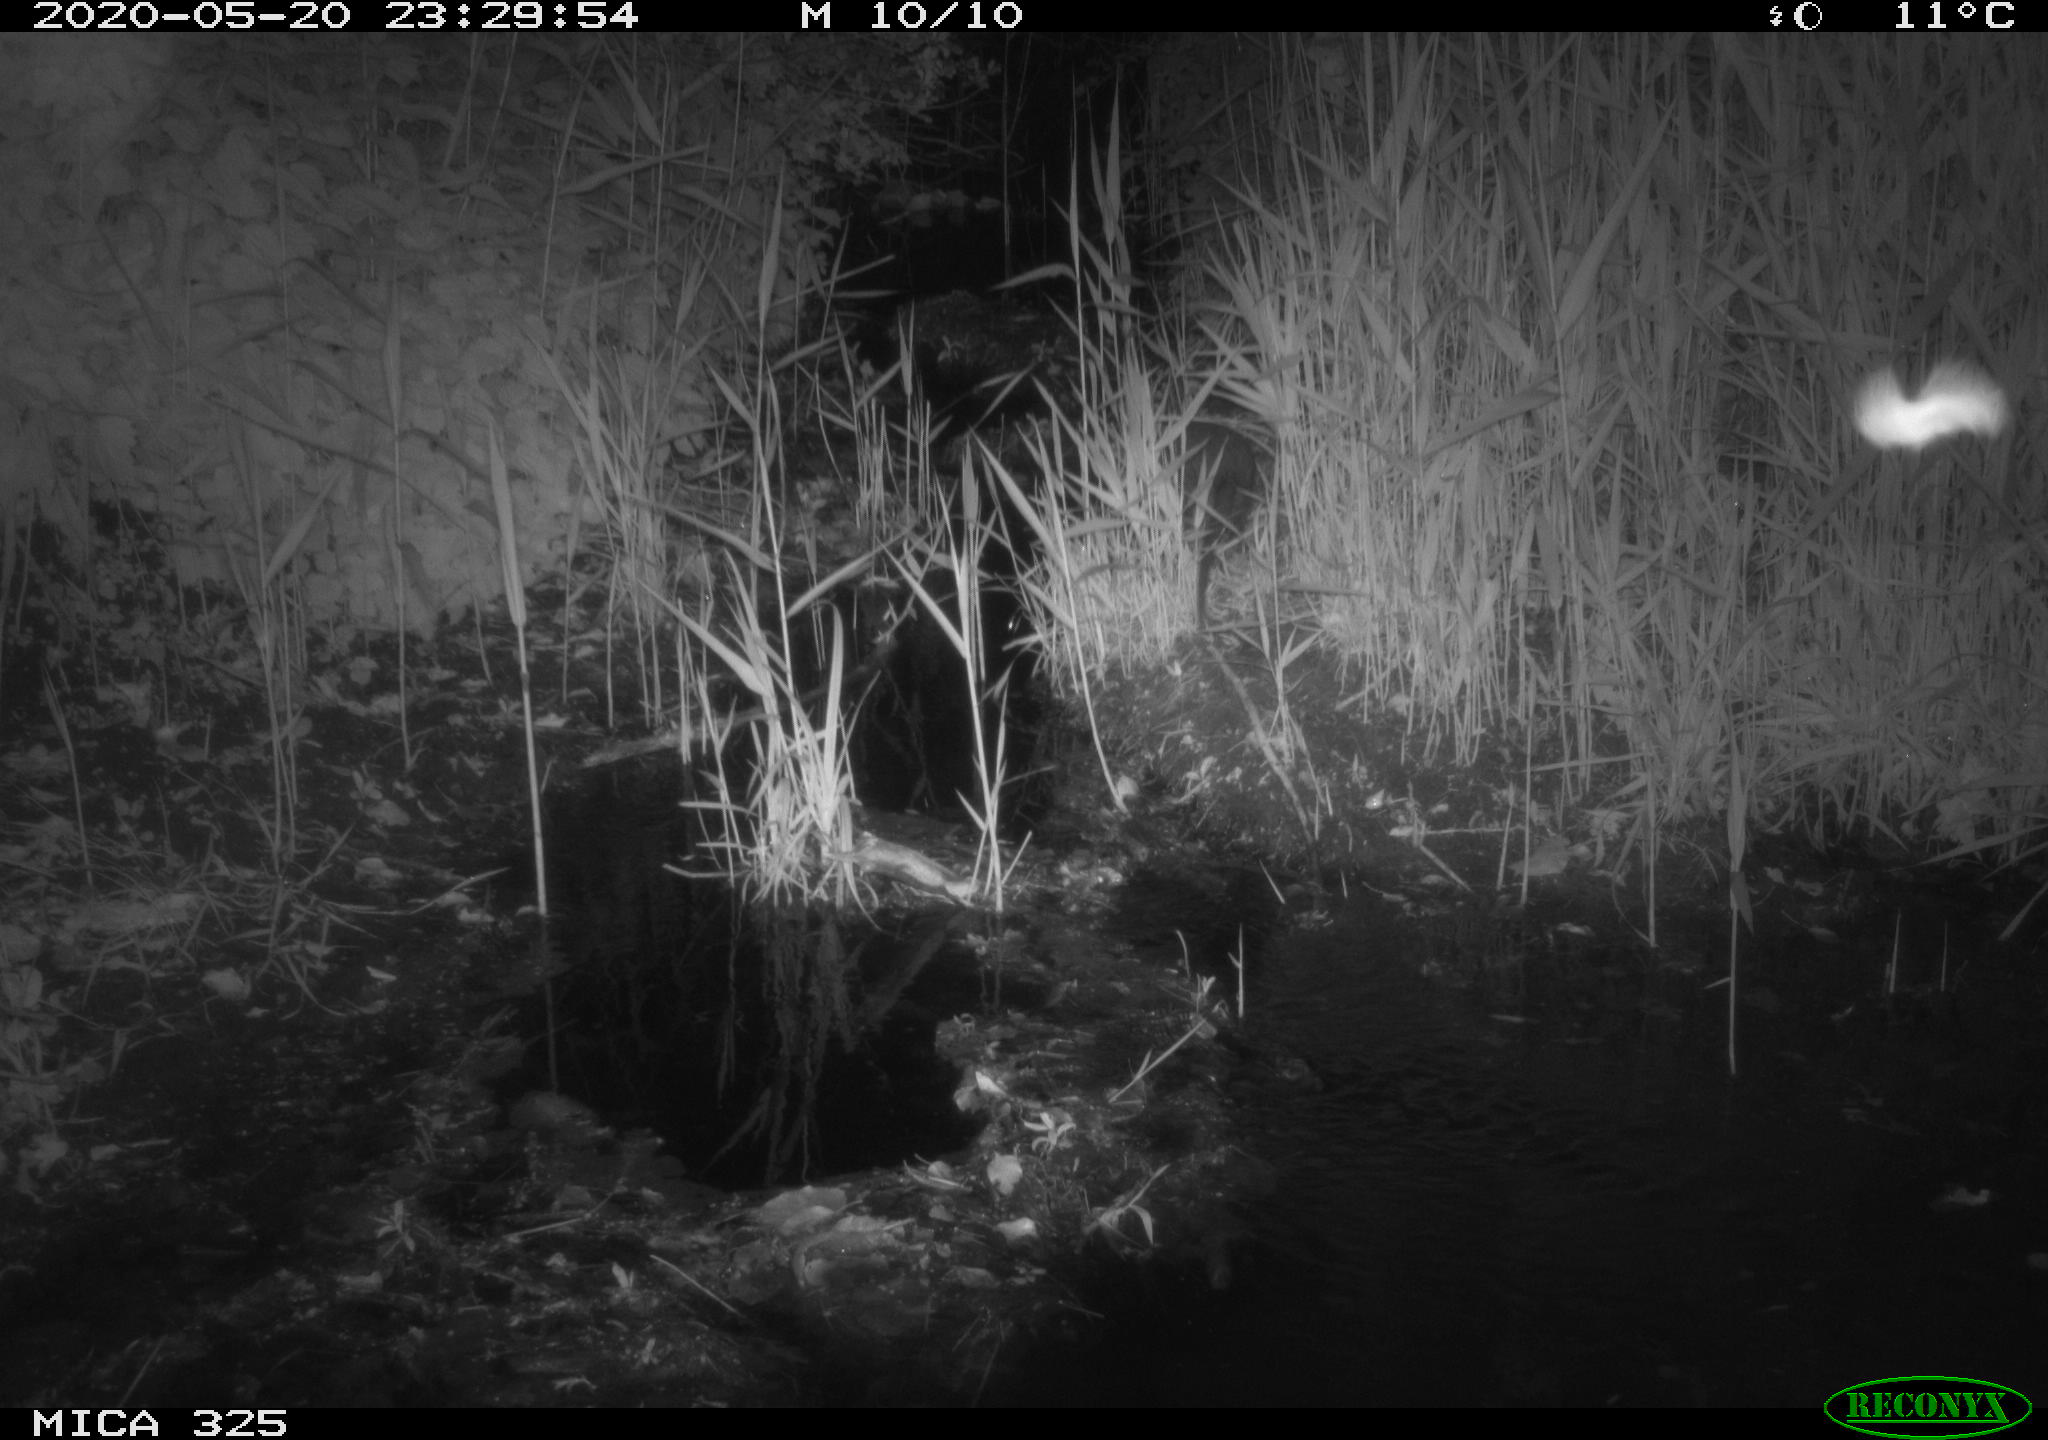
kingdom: Animalia
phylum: Chordata
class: Mammalia
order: Rodentia
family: Myocastoridae
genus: Myocastor
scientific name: Myocastor coypus
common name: Coypu
